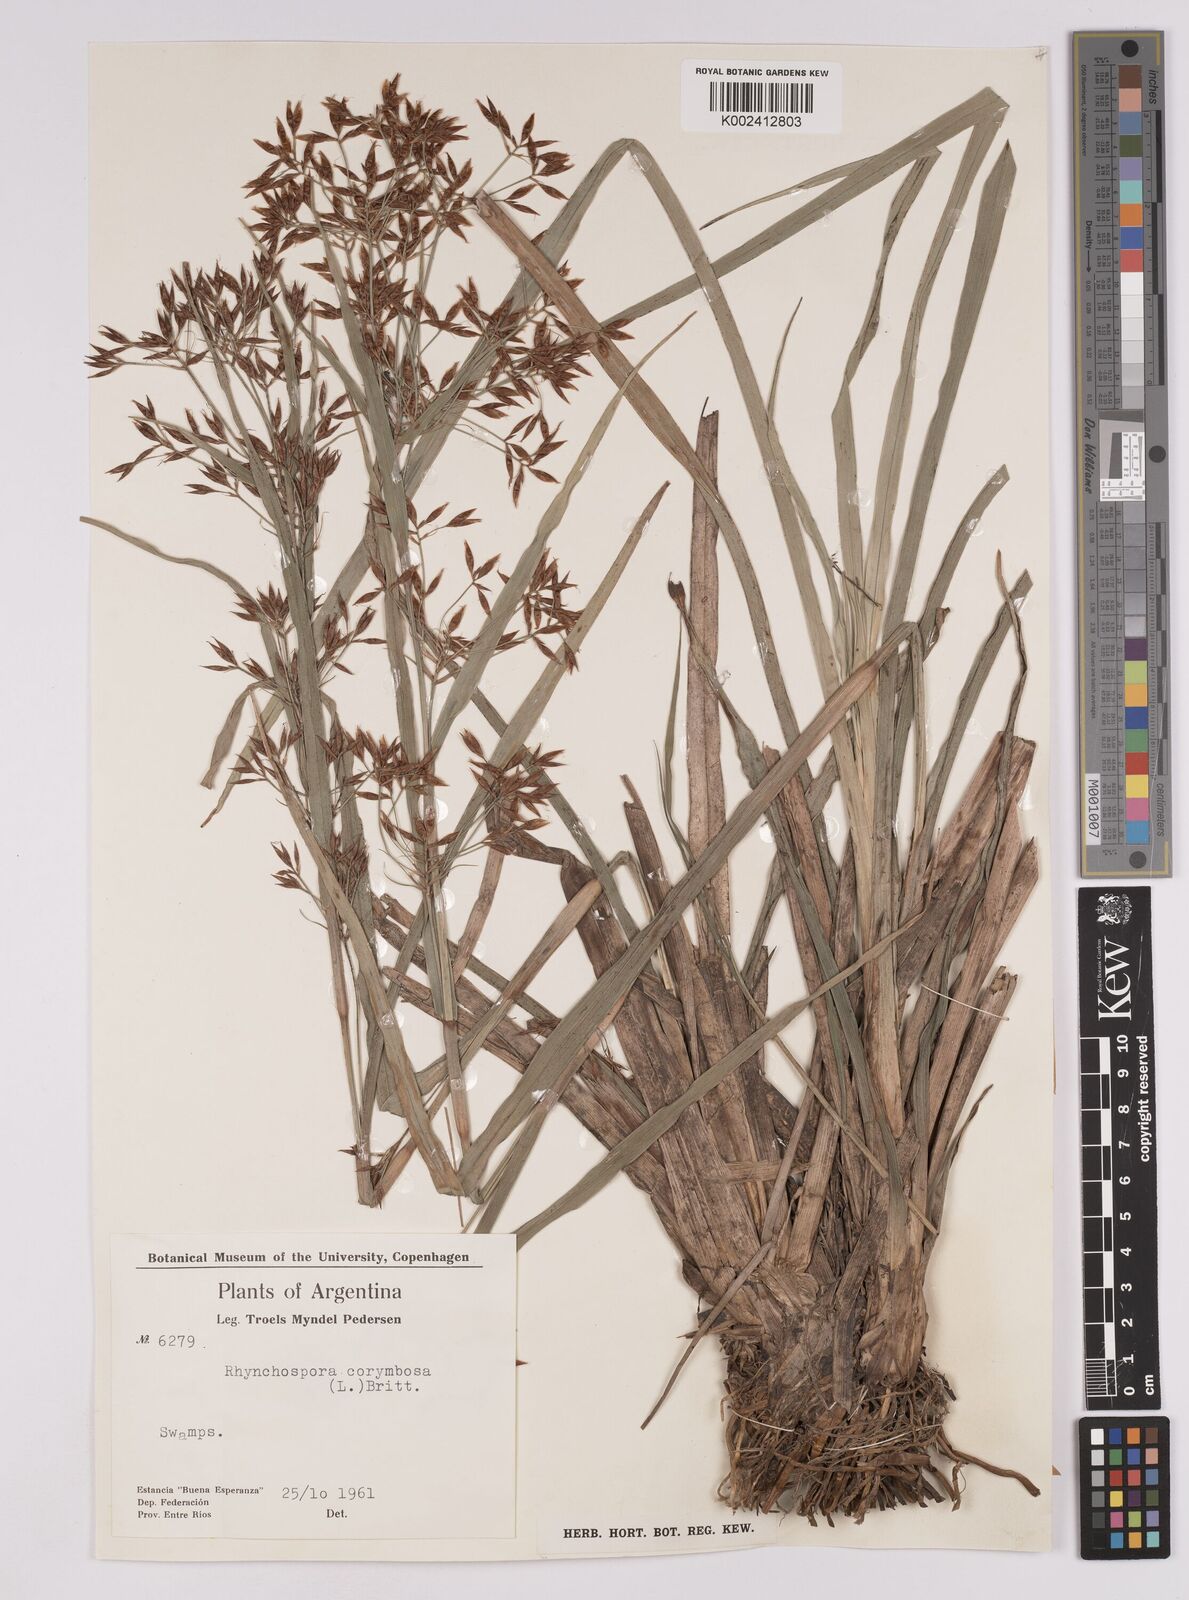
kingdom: Plantae
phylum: Tracheophyta
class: Liliopsida
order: Poales
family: Cyperaceae
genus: Rhynchospora
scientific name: Rhynchospora corymbosa
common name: Golden beak sedge
